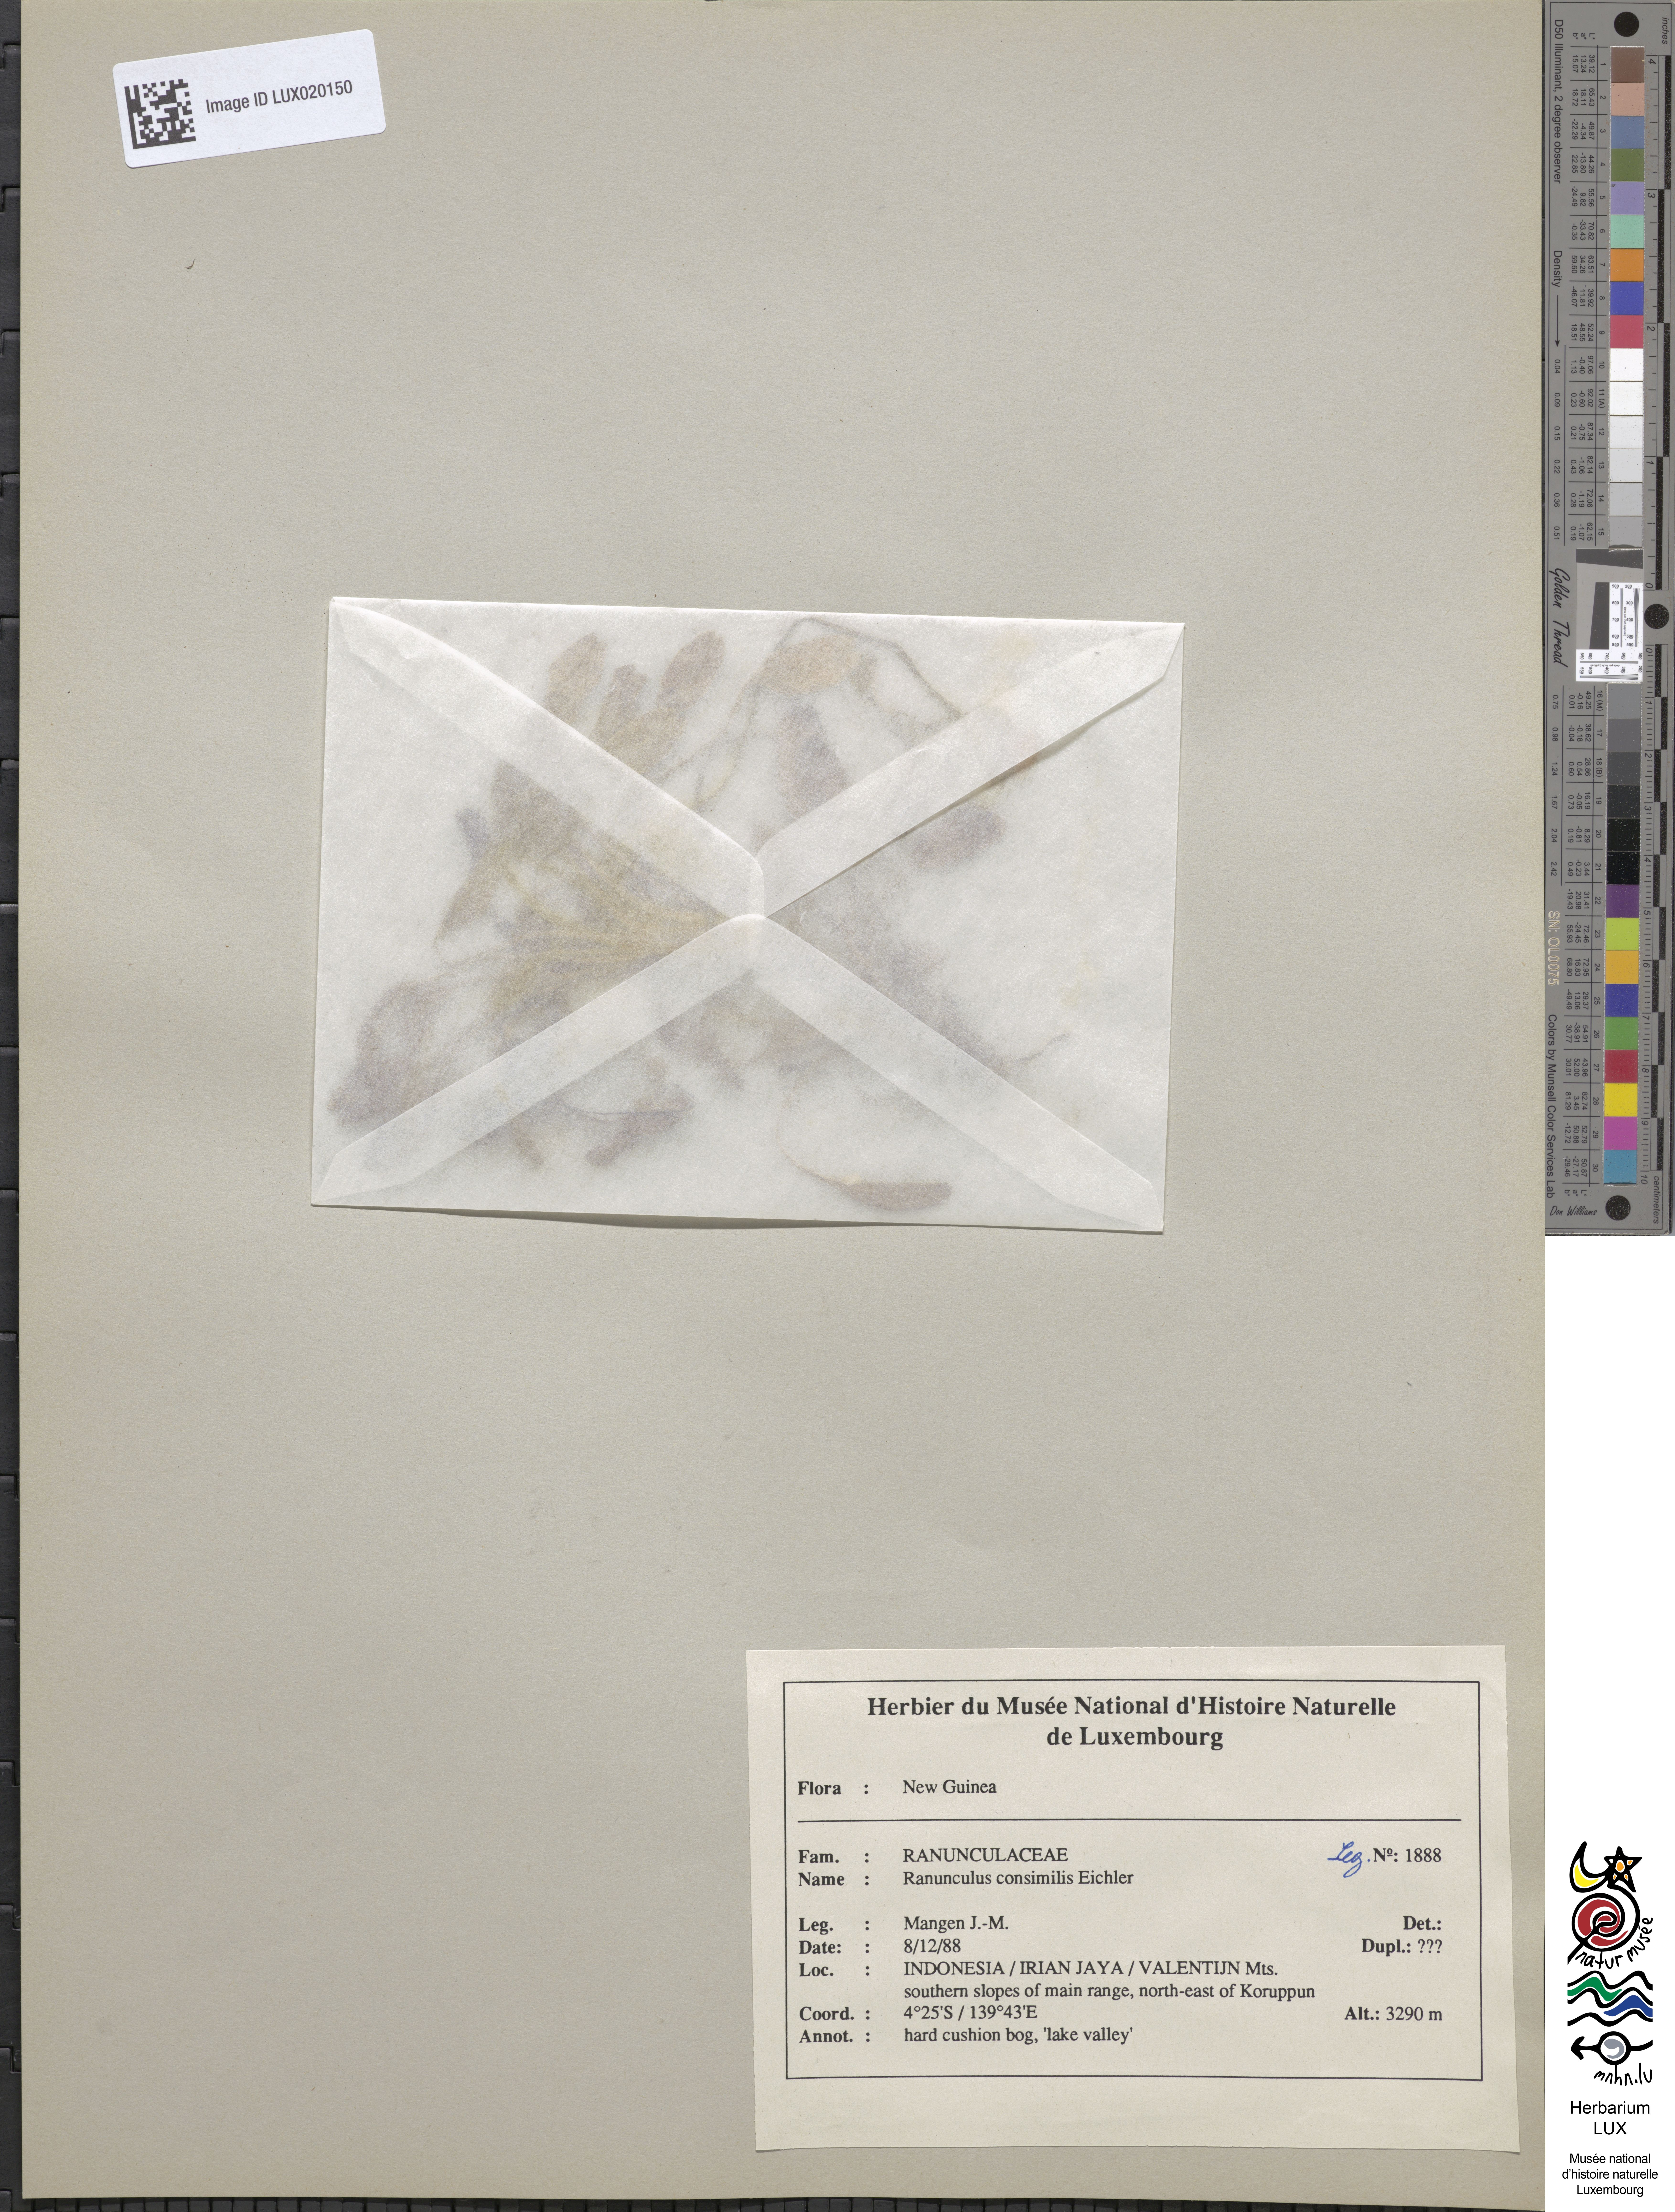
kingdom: Plantae
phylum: Tracheophyta
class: Magnoliopsida
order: Ranunculales
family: Ranunculaceae
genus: Ranunculus
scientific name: Ranunculus consimilis
